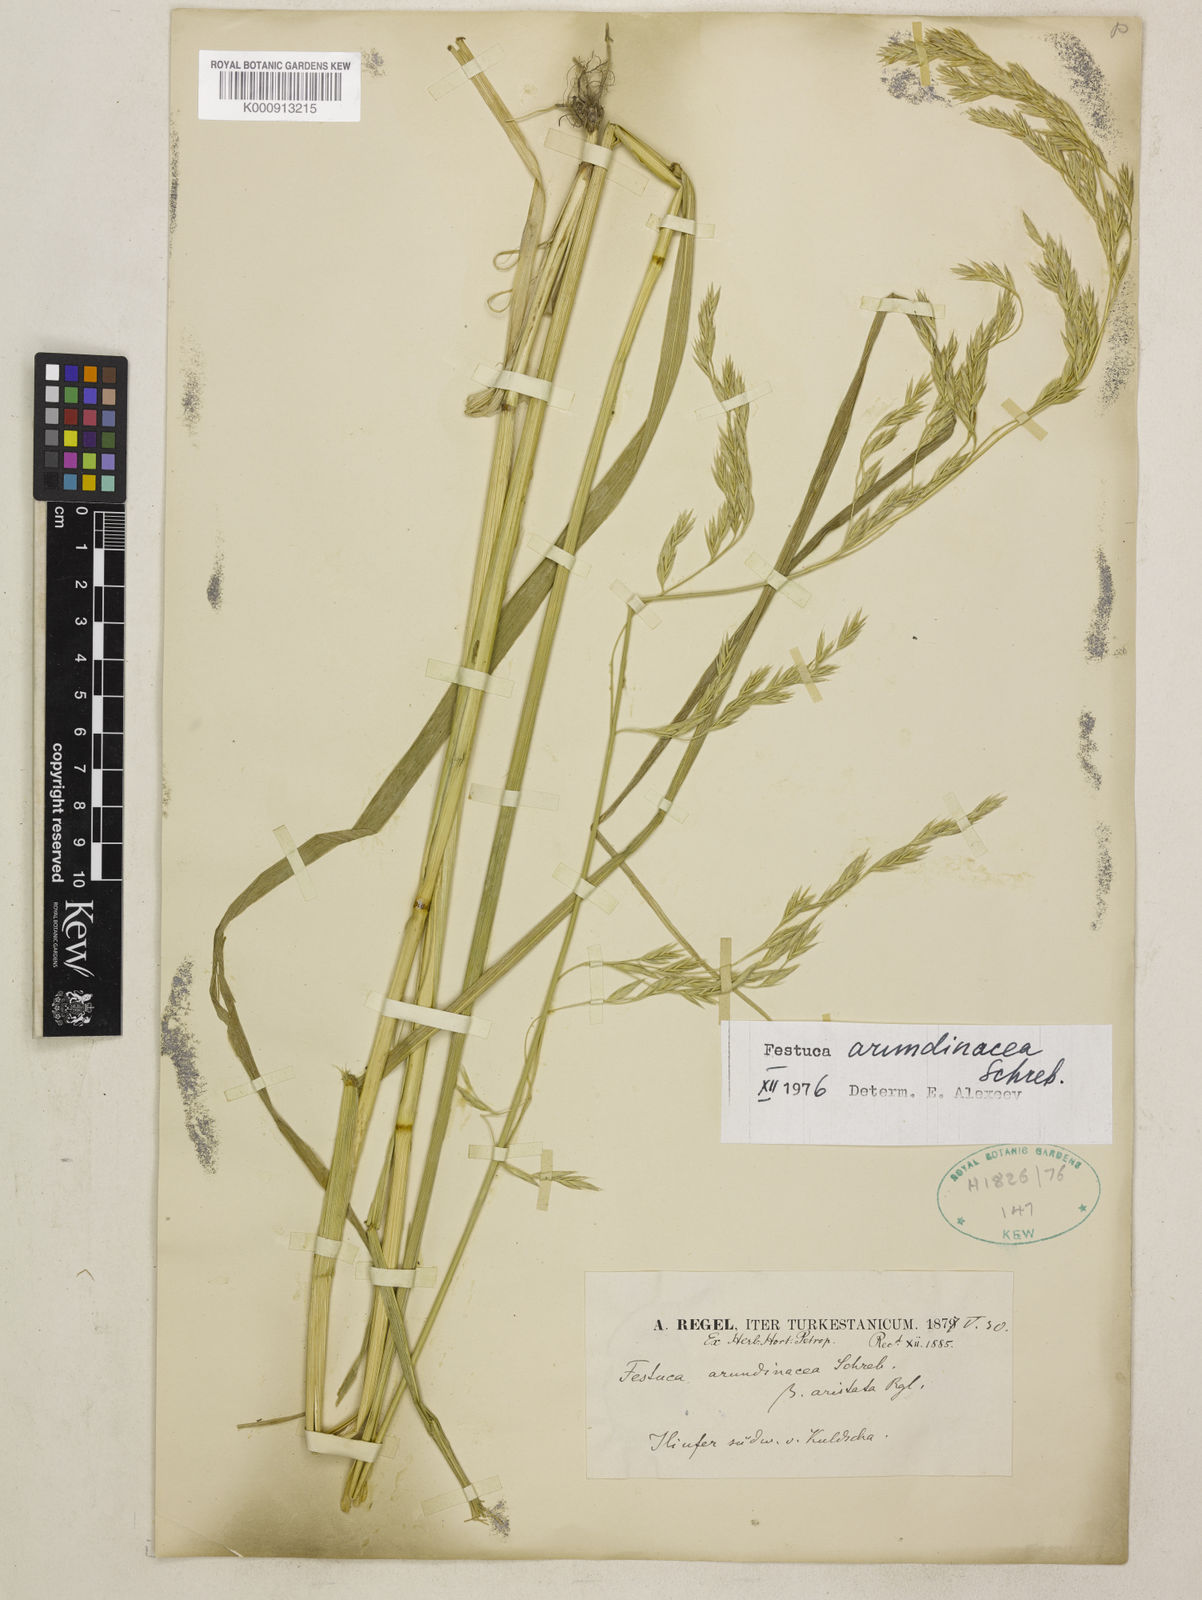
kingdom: Plantae
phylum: Tracheophyta
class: Liliopsida
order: Poales
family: Poaceae
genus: Lolium
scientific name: Lolium arundinaceum
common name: Reed fescue
